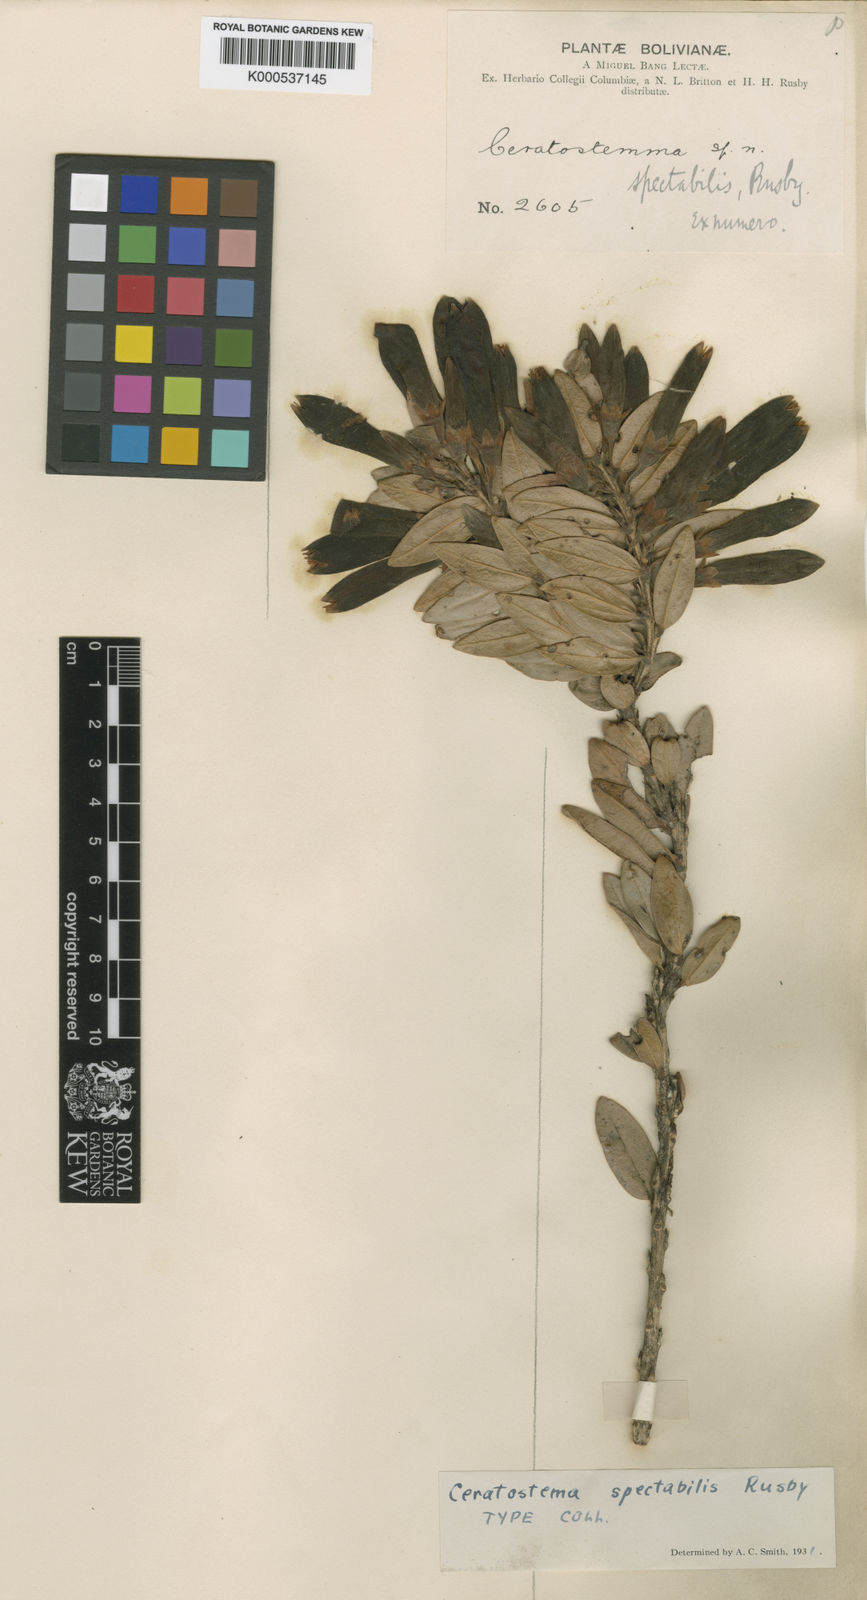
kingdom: Plantae
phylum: Tracheophyta
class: Magnoliopsida
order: Ericales
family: Ericaceae
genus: Demosthenesia
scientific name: Demosthenesia spectabilis
